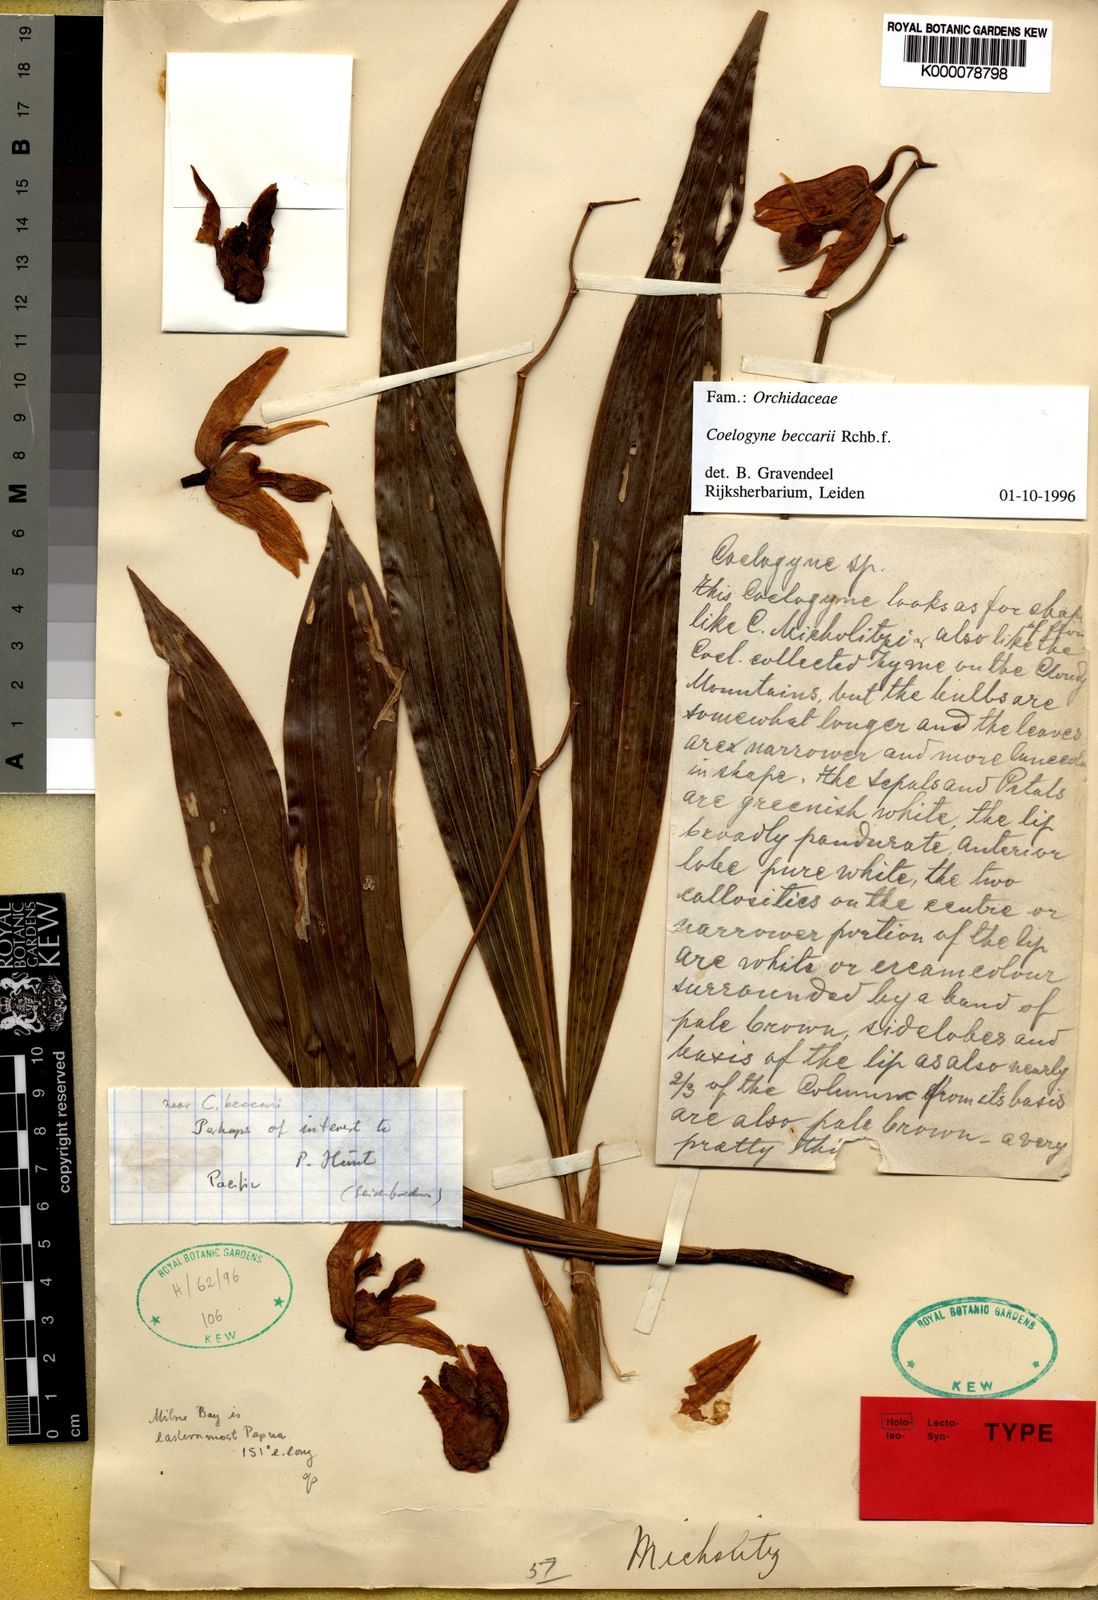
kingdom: Plantae
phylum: Tracheophyta
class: Liliopsida
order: Asparagales
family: Orchidaceae
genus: Coelogyne
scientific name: Coelogyne beccarii
